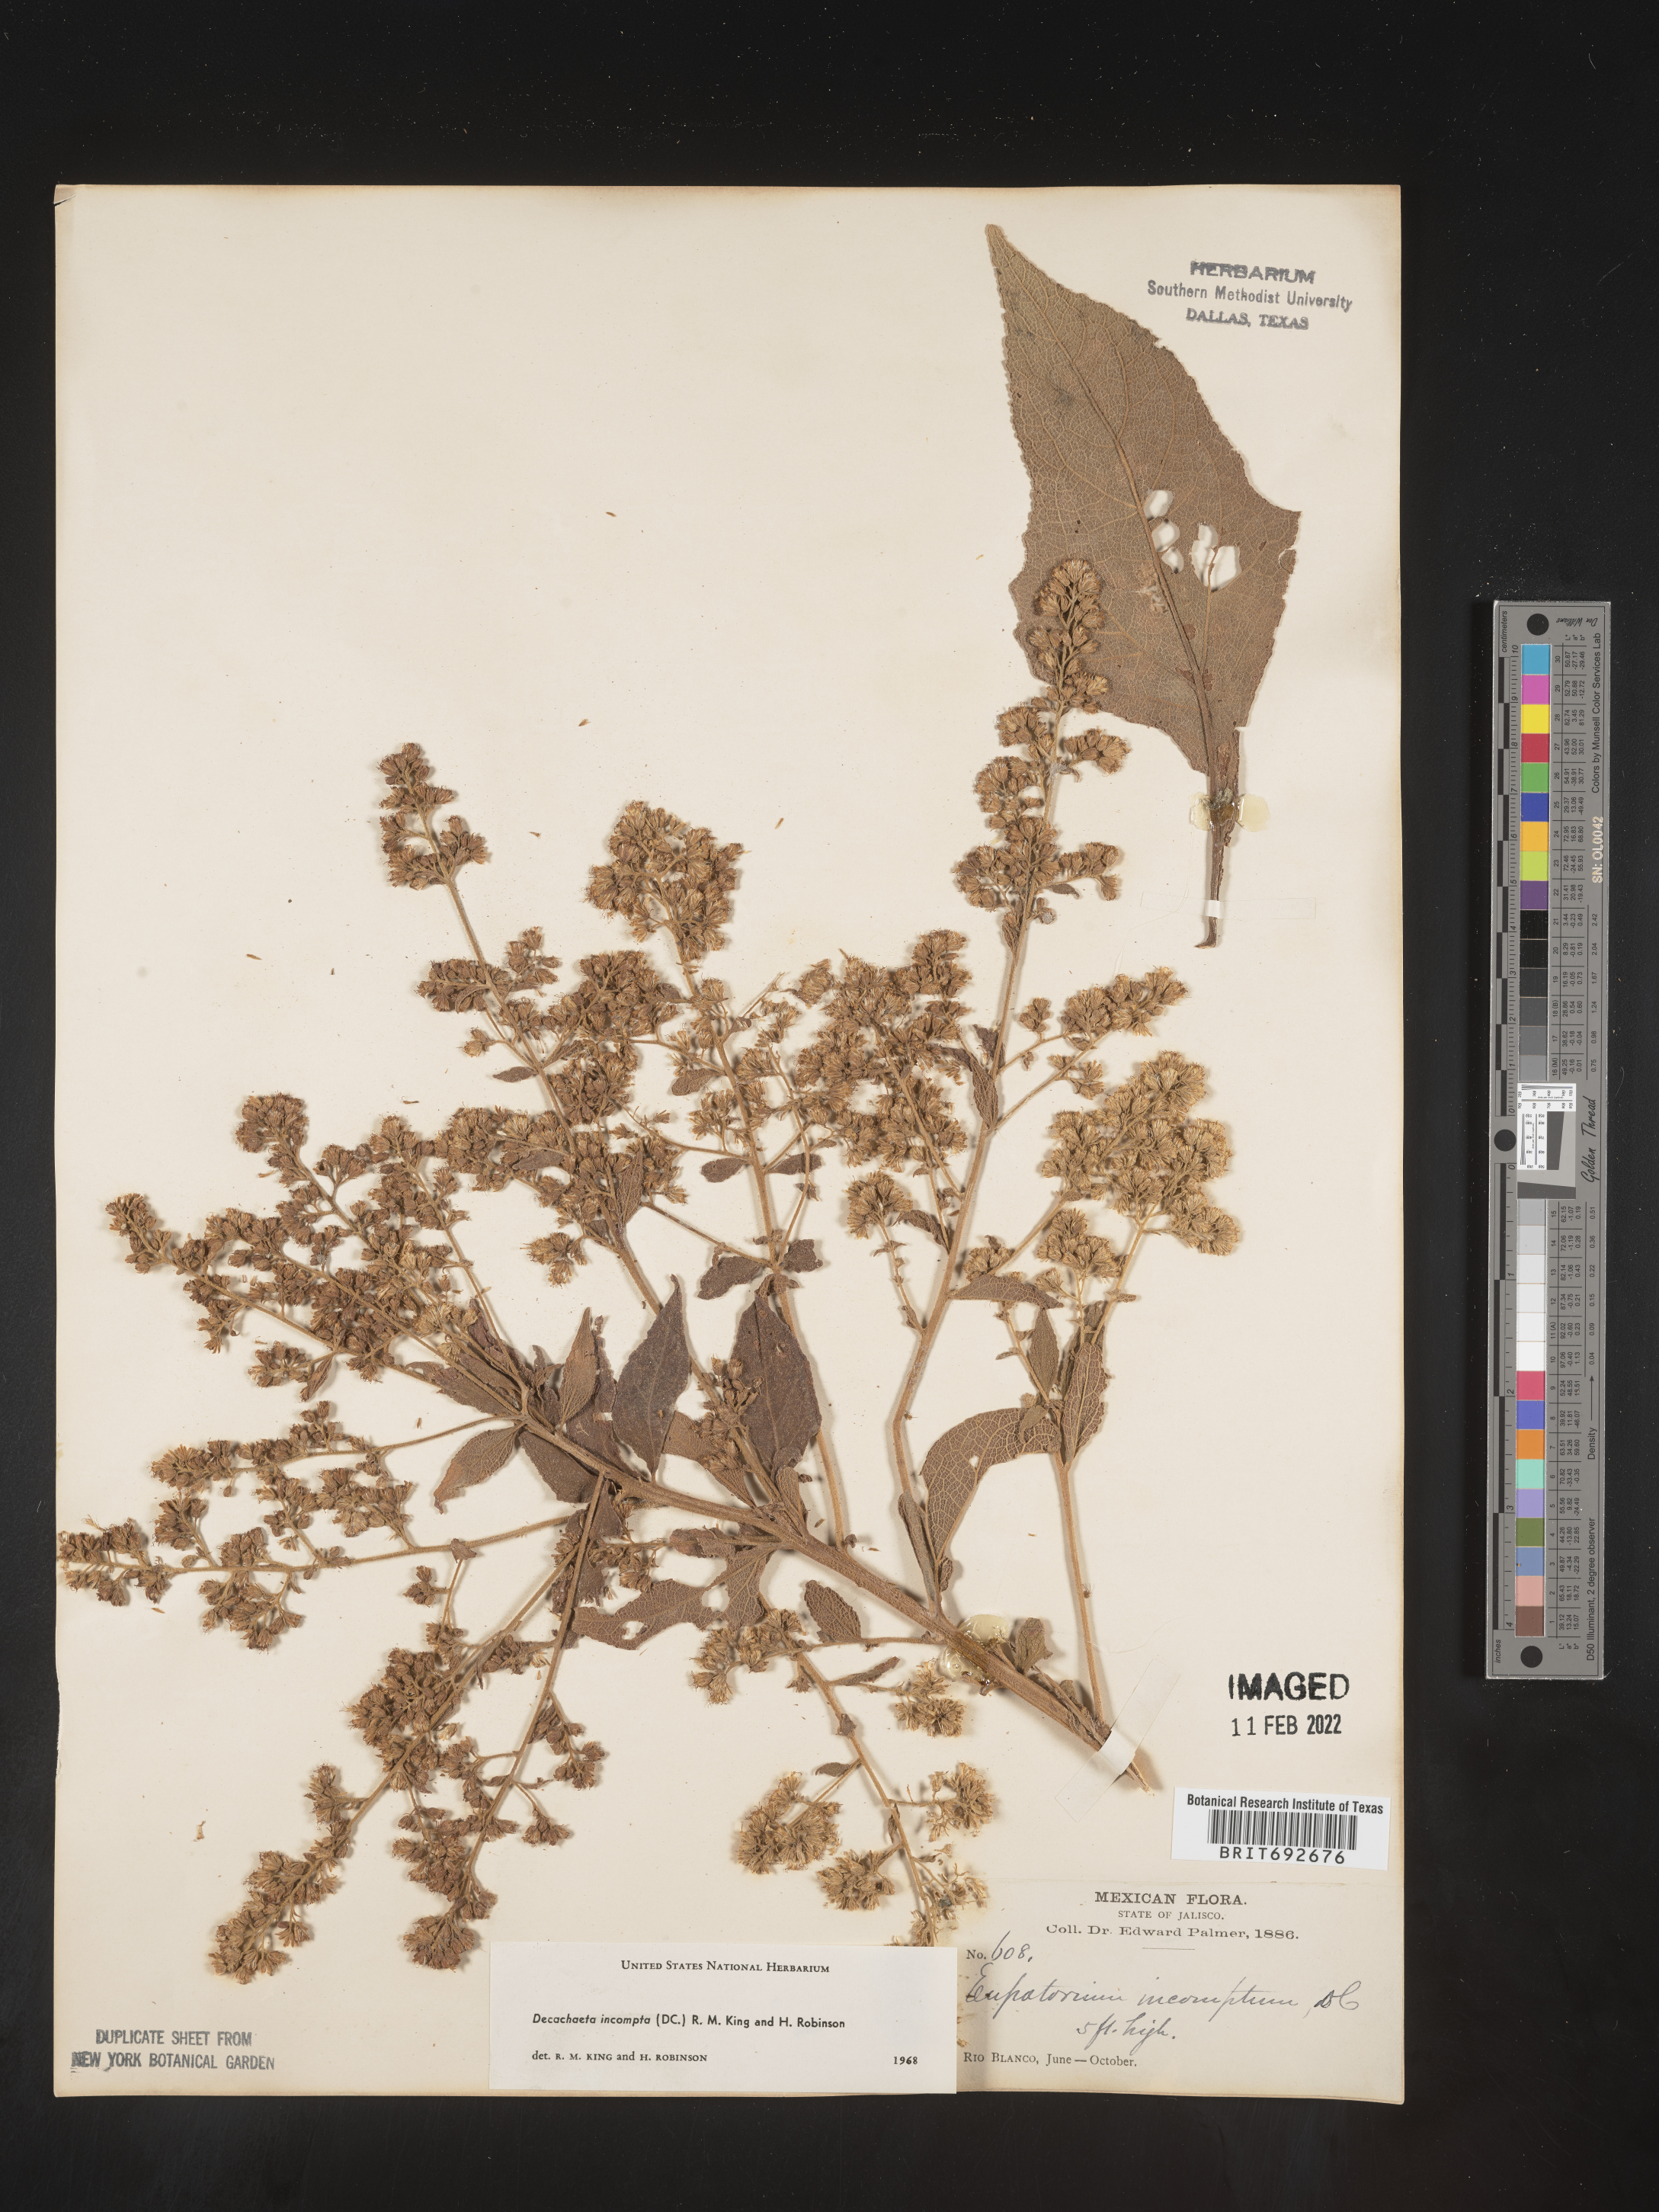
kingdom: Plantae
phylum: Tracheophyta
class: Magnoliopsida
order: Asterales
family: Asteraceae
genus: Decachaeta
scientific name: Decachaeta
